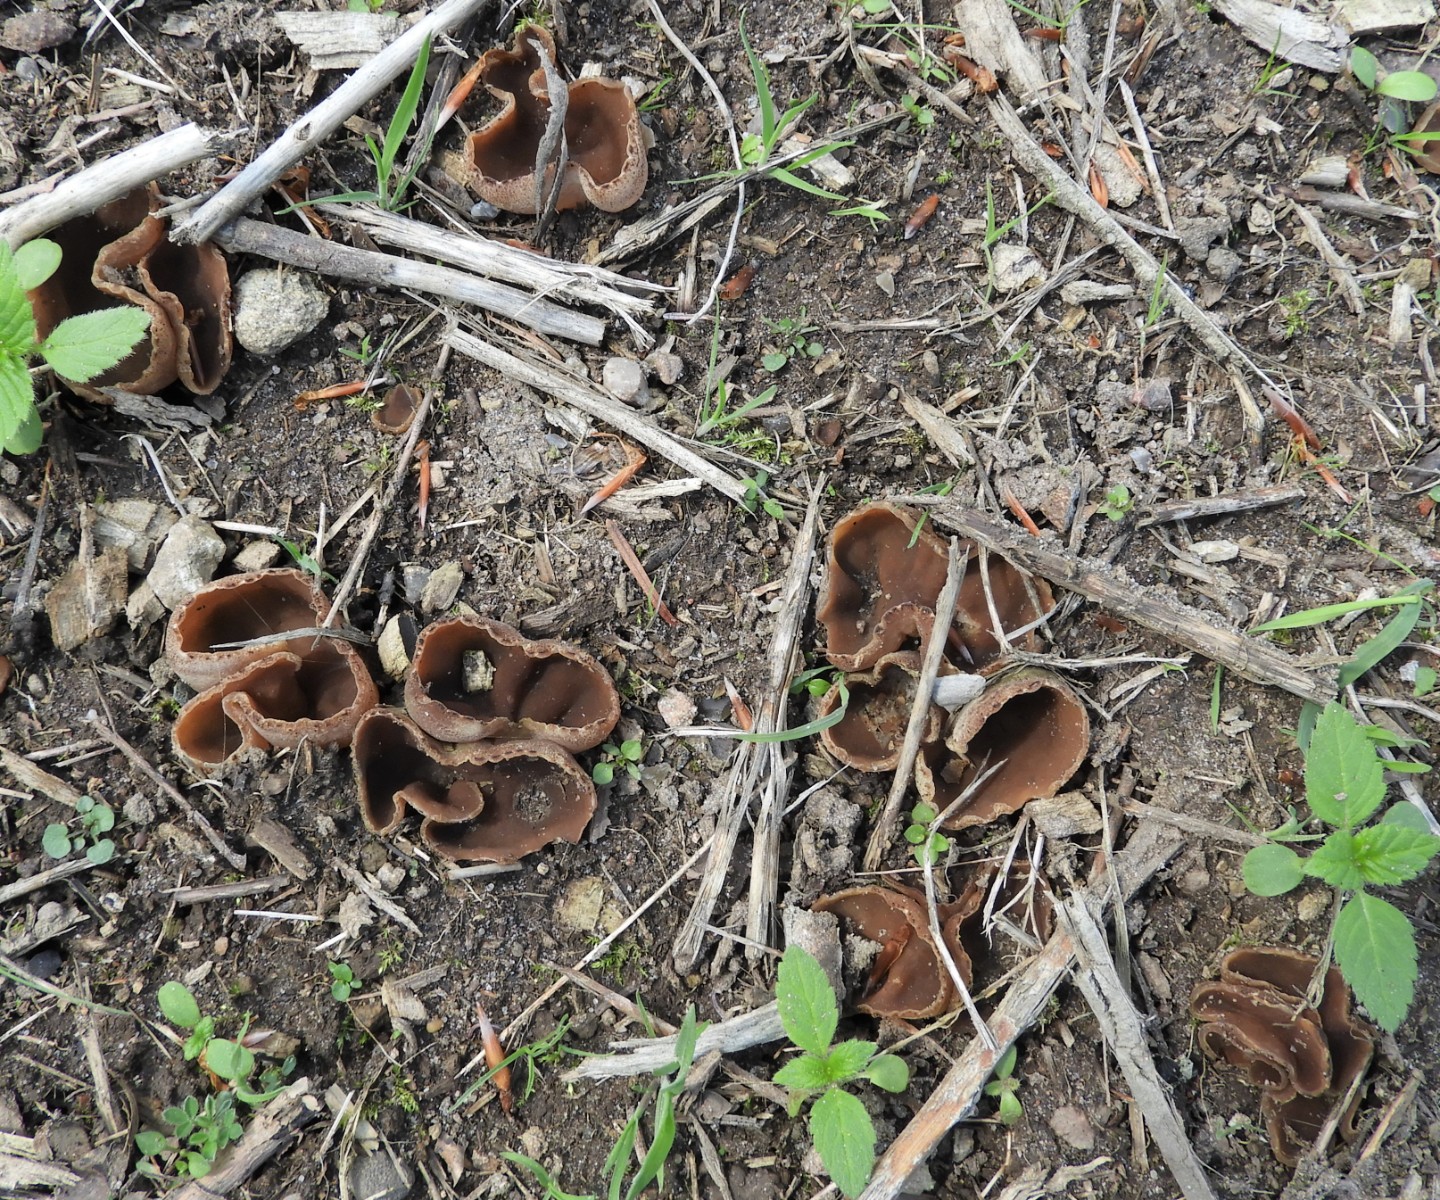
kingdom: Fungi
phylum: Ascomycota
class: Pezizomycetes
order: Pezizales
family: Pezizaceae
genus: Peziza
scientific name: Peziza
